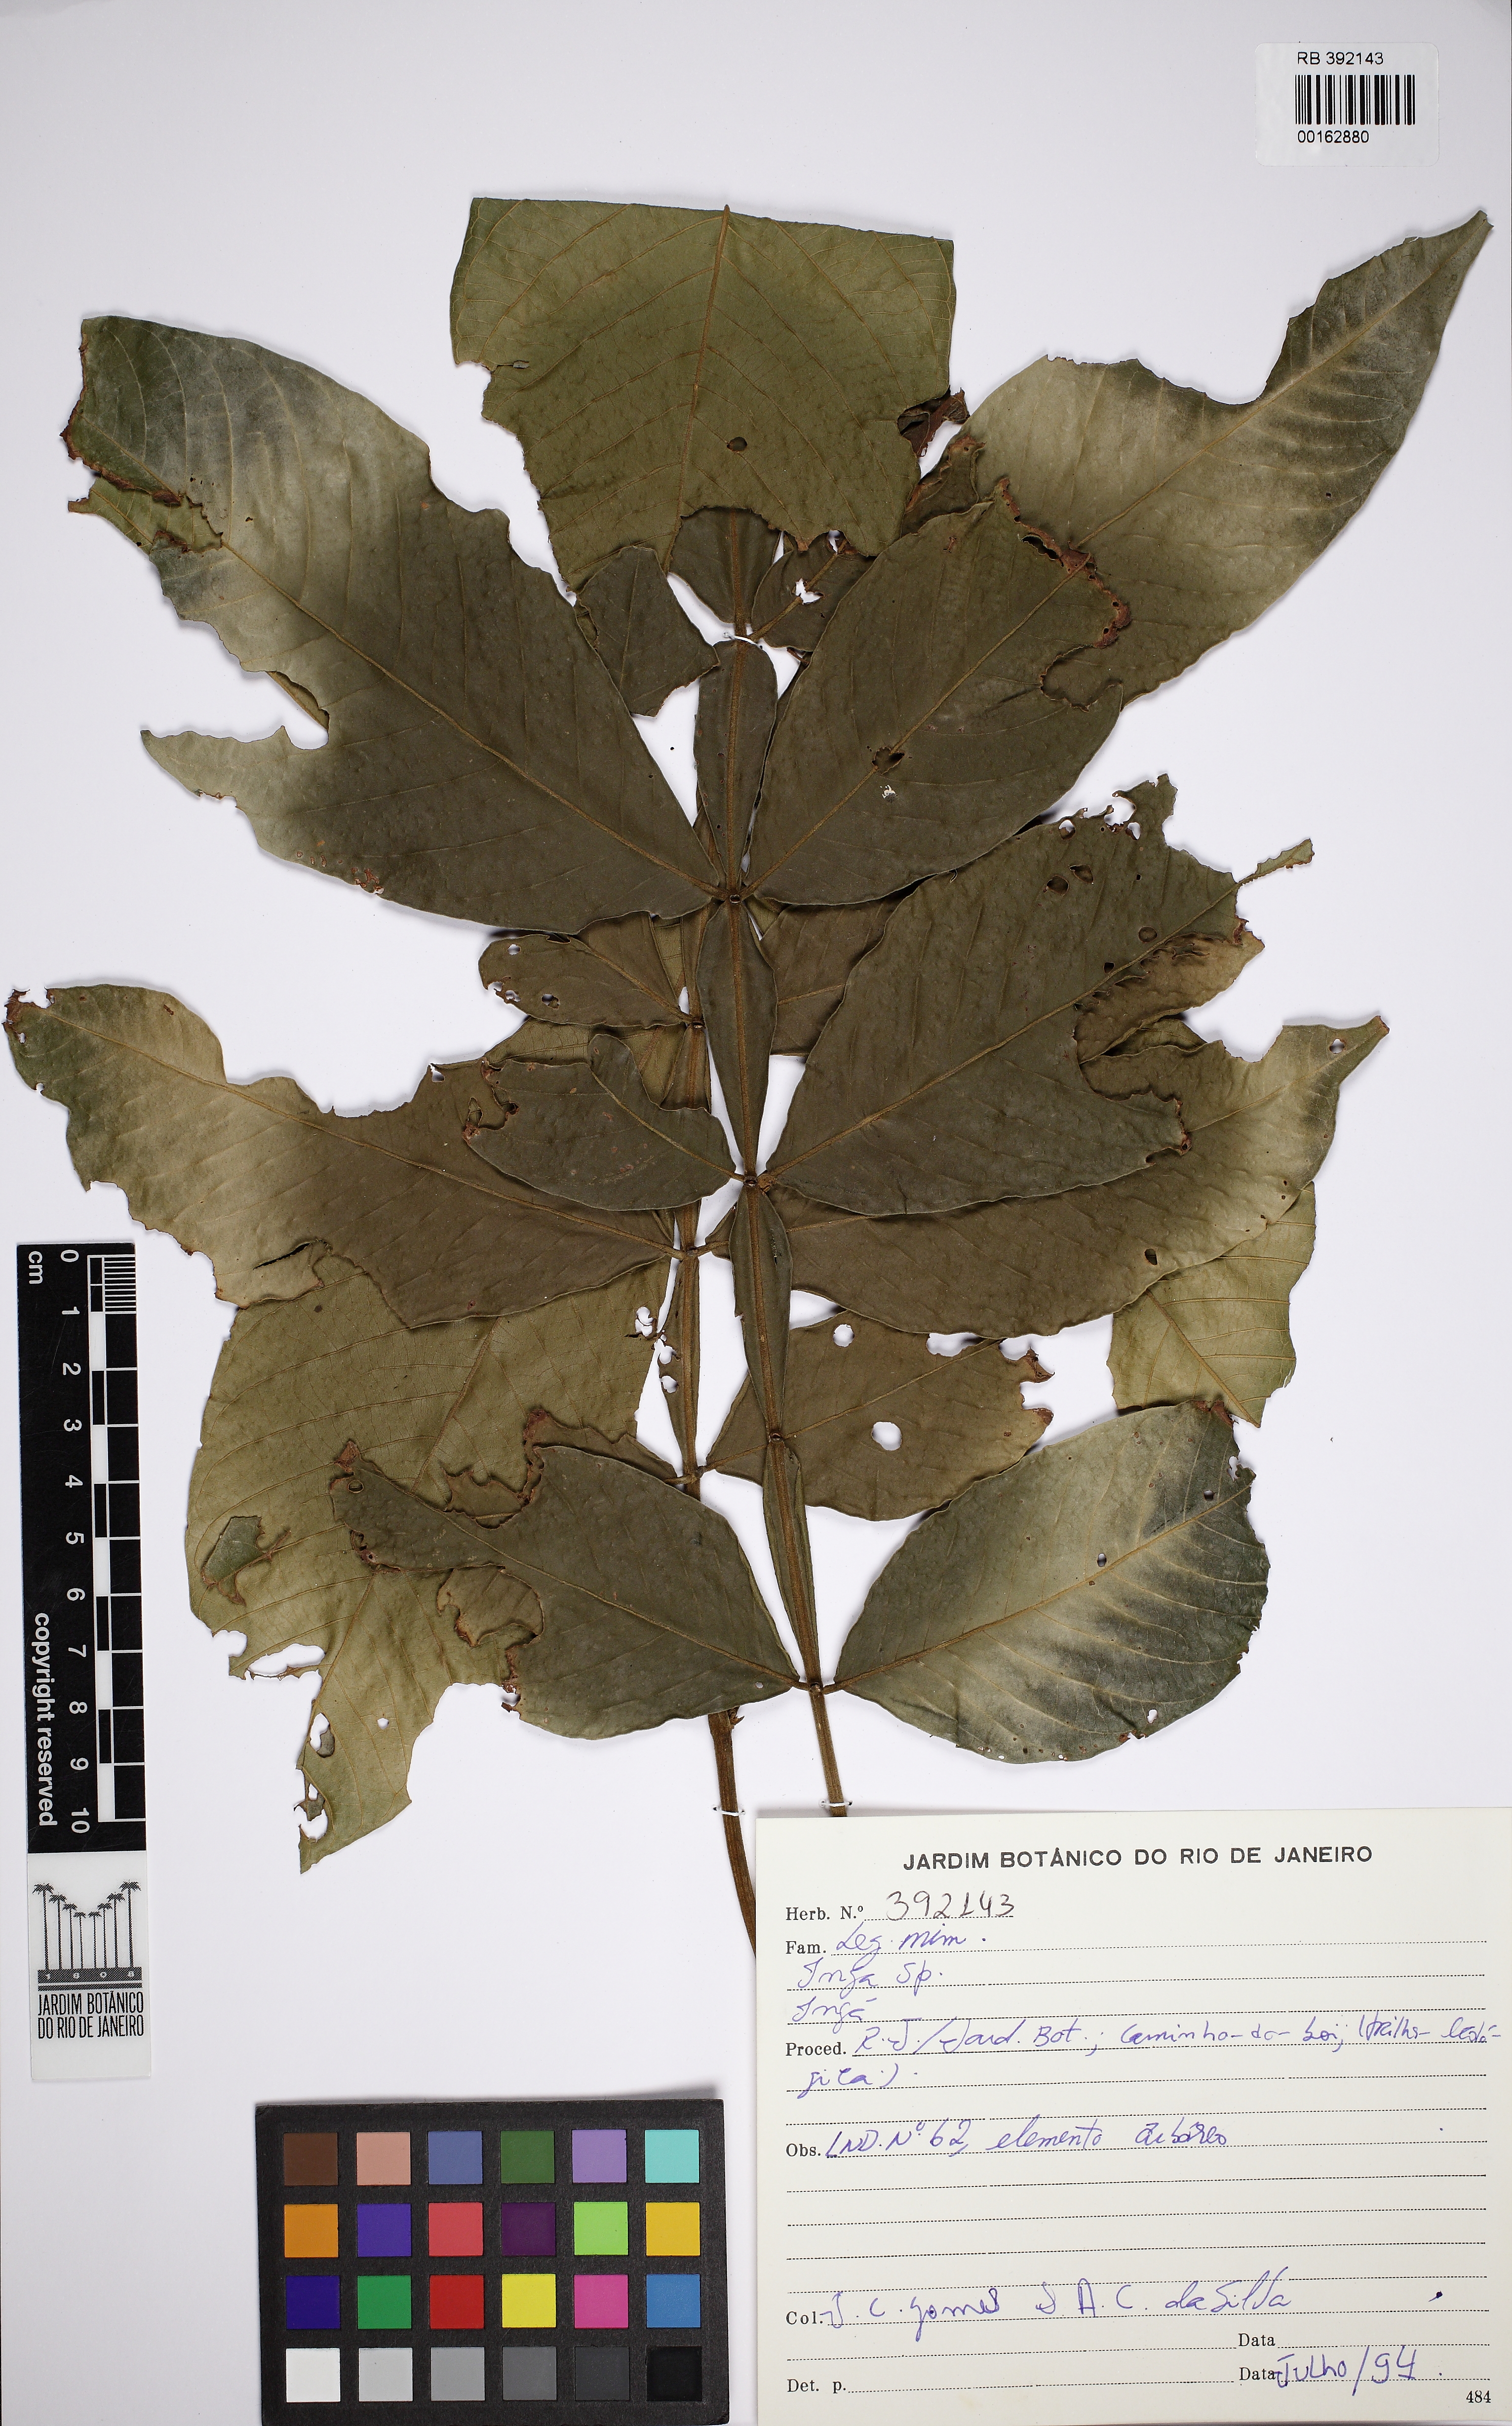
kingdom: Plantae
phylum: Tracheophyta
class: Magnoliopsida
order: Fabales
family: Fabaceae
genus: Inga
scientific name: Inga
